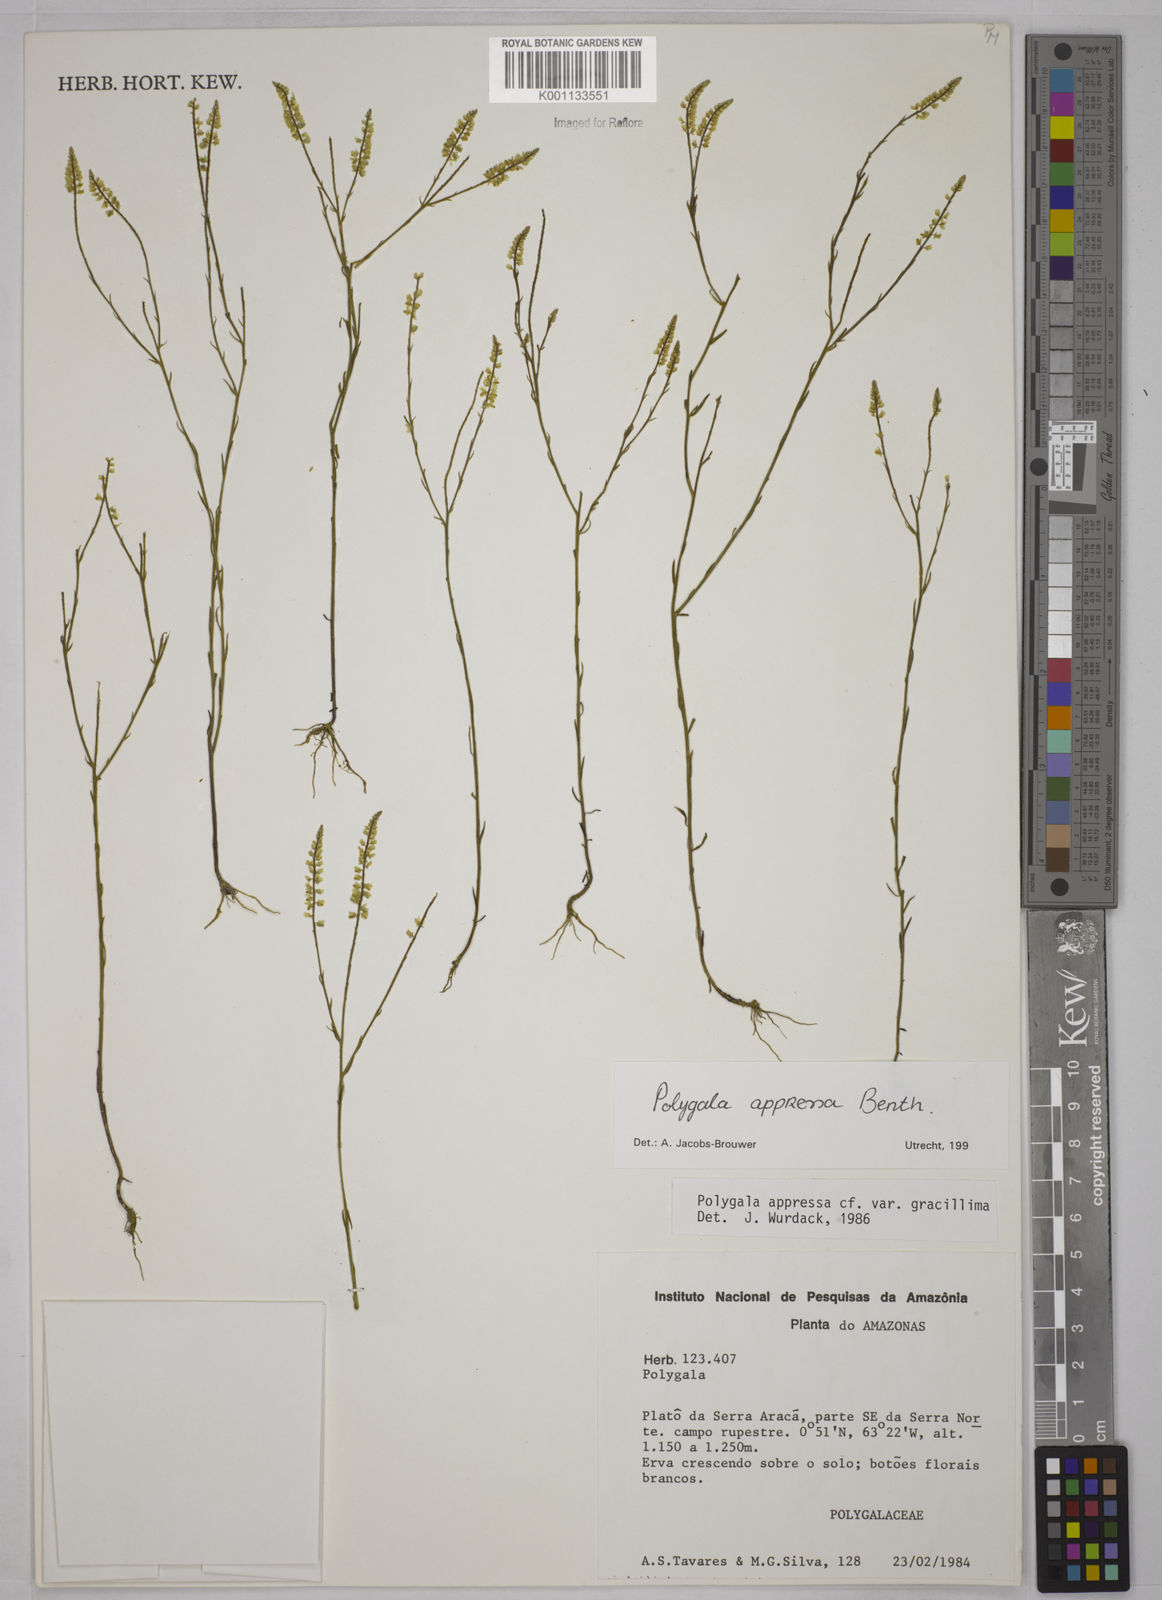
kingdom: Plantae
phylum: Tracheophyta
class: Magnoliopsida
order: Fabales
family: Polygalaceae
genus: Polygala
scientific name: Polygala appressa
